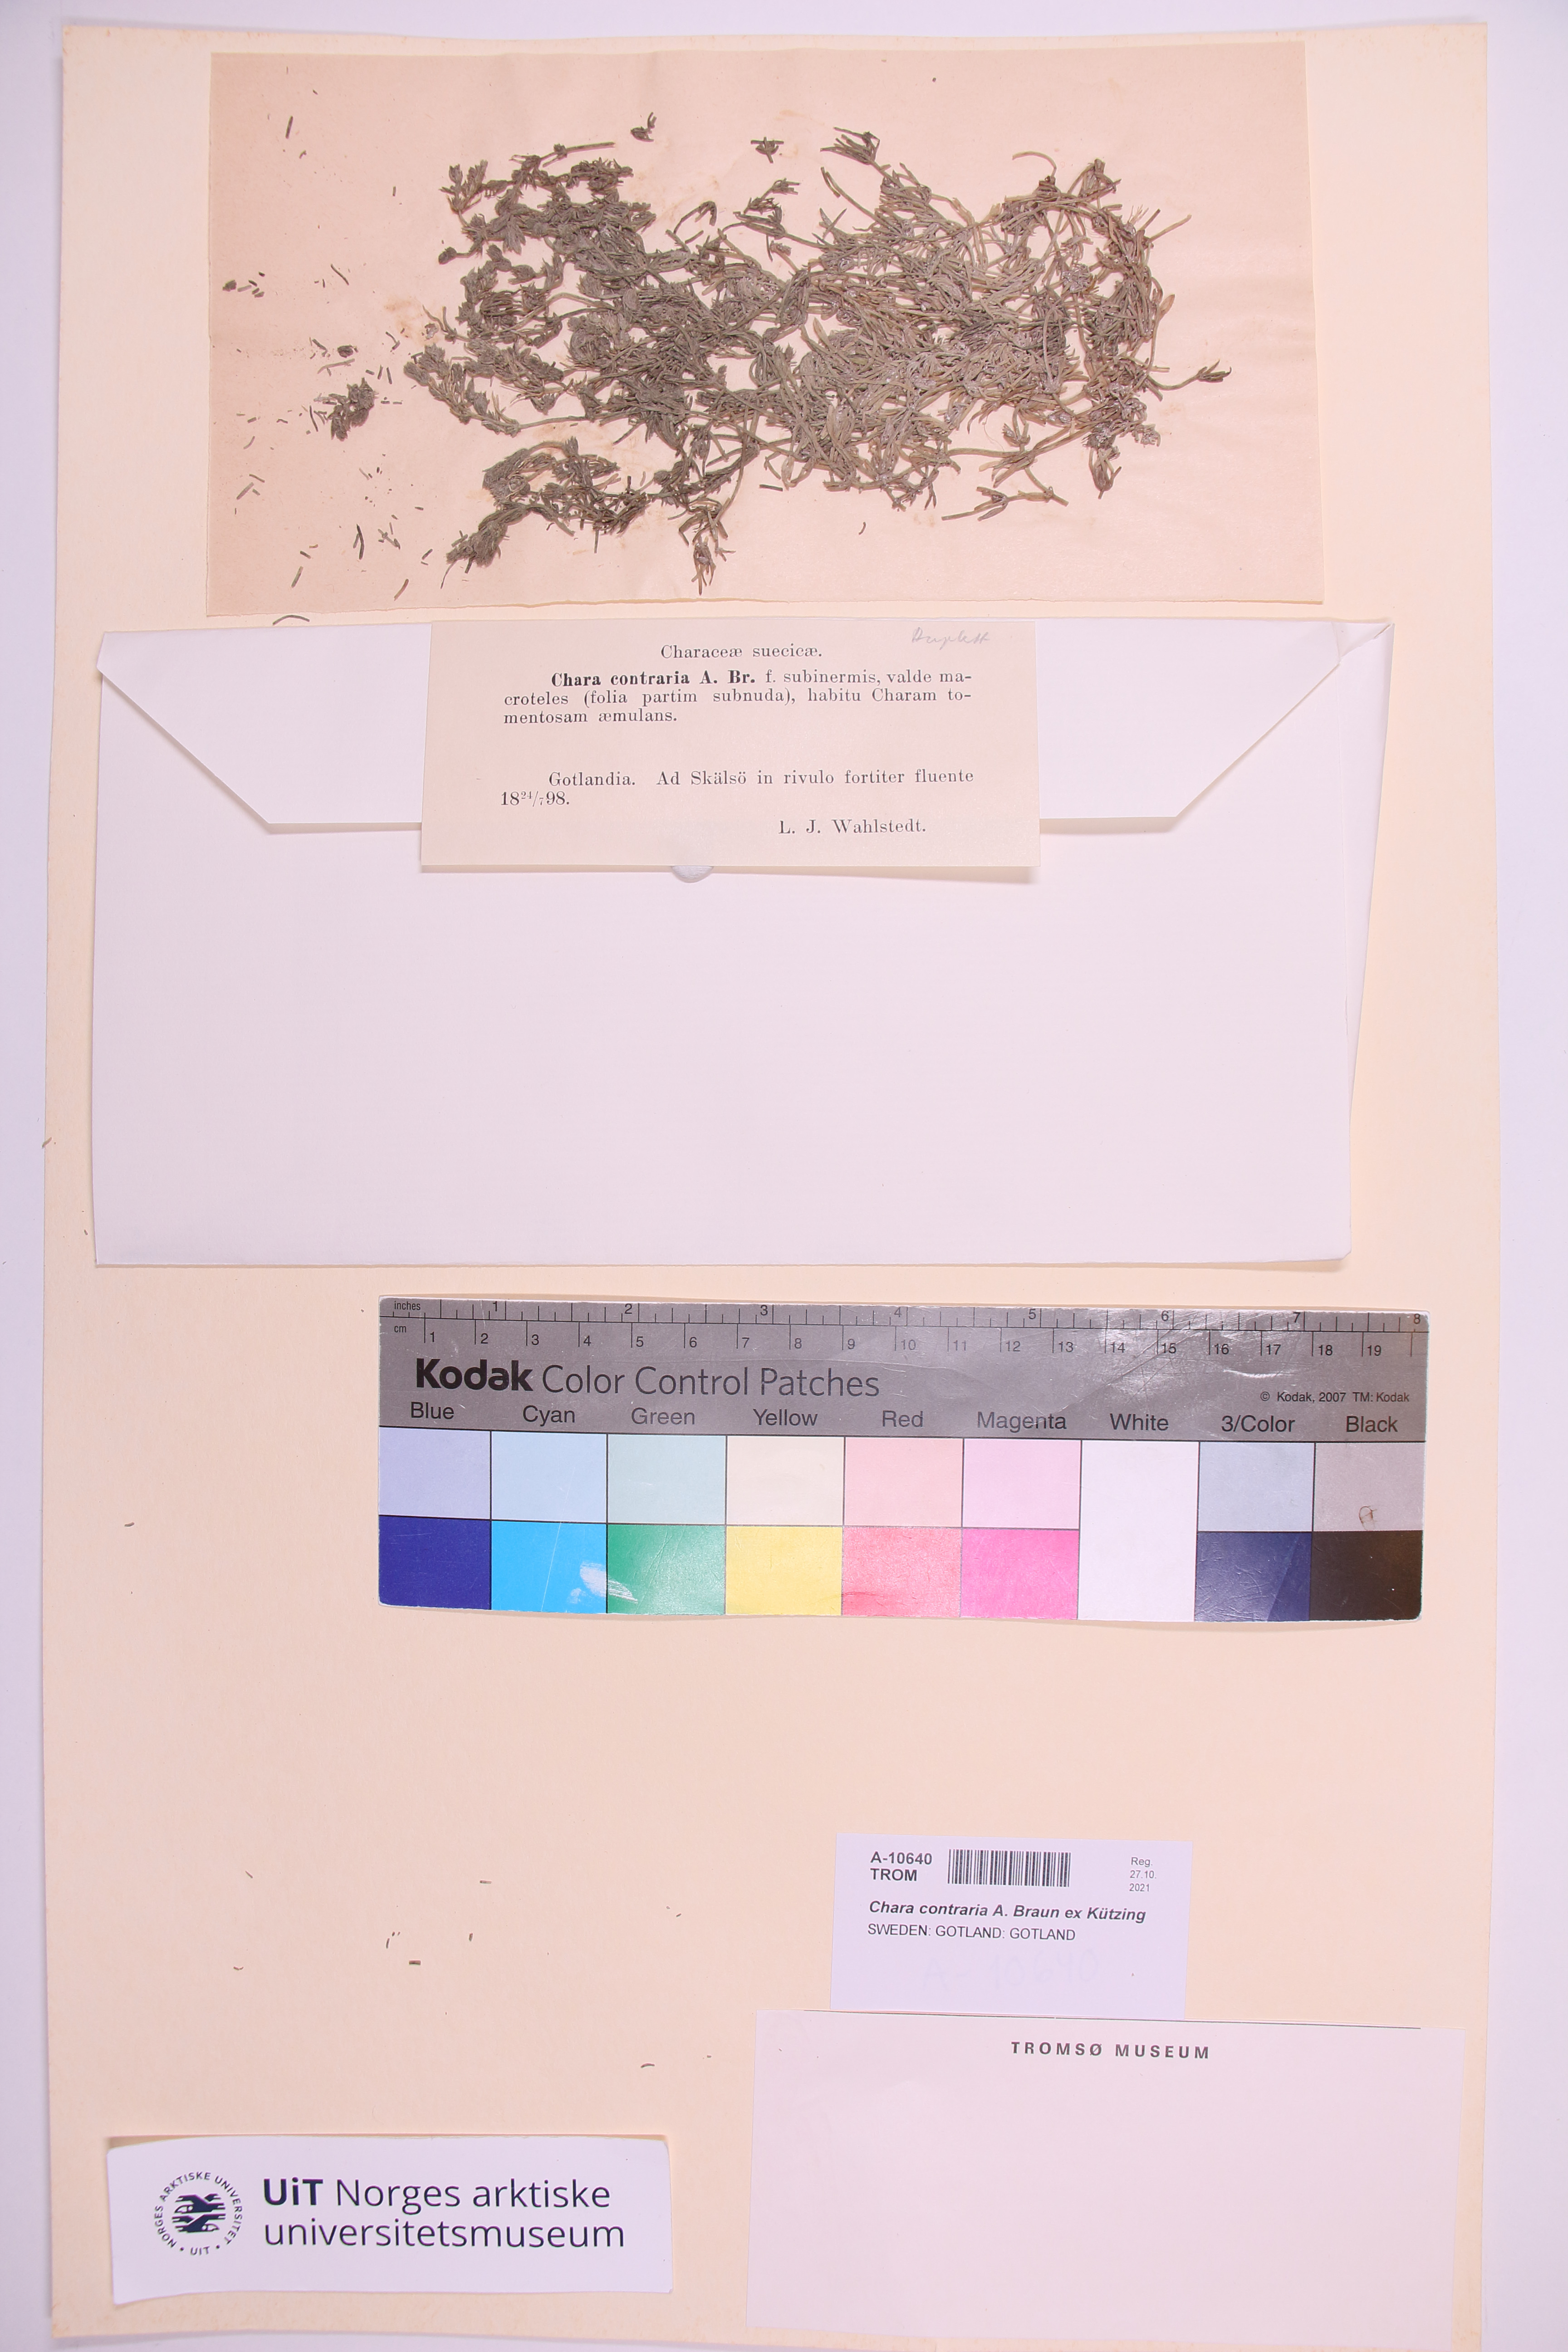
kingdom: Plantae
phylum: Charophyta
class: Charophyceae
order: Charales
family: Characeae
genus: Chara
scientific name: Chara contraria
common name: Opposite stonewort
